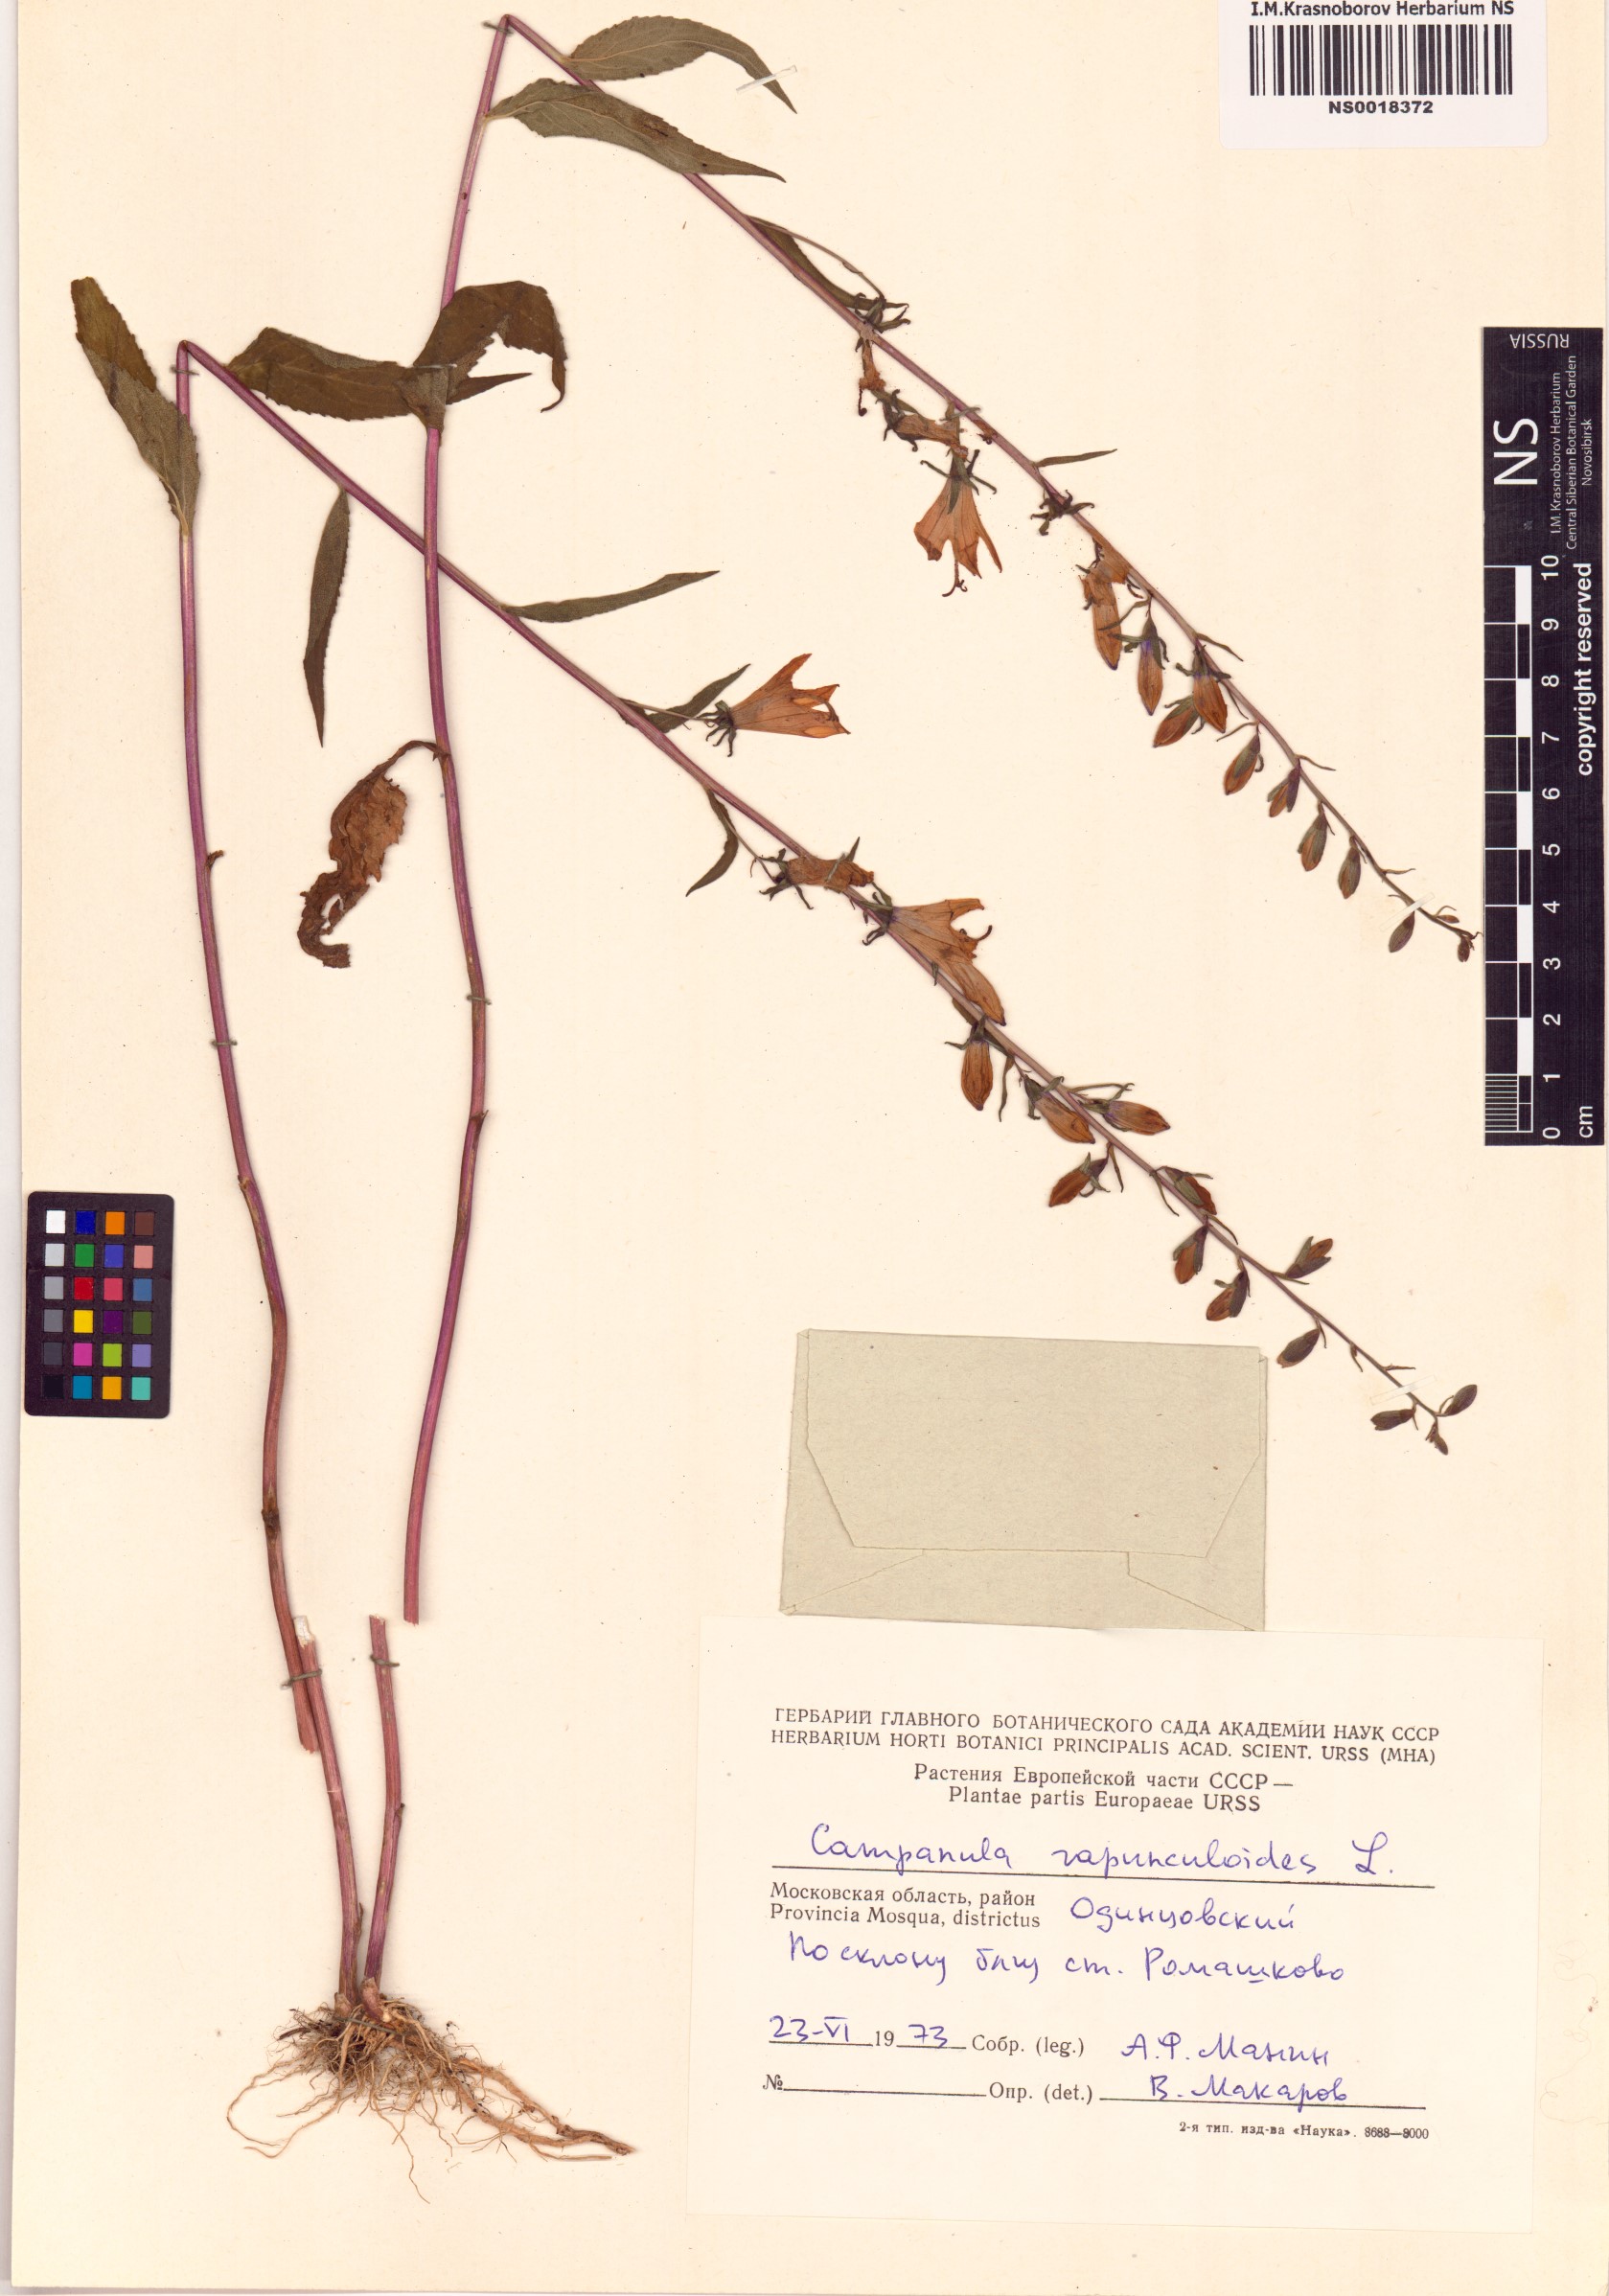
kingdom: Plantae
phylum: Tracheophyta
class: Magnoliopsida
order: Asterales
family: Campanulaceae
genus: Campanula
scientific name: Campanula rapunculoides
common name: Creeping bellflower
